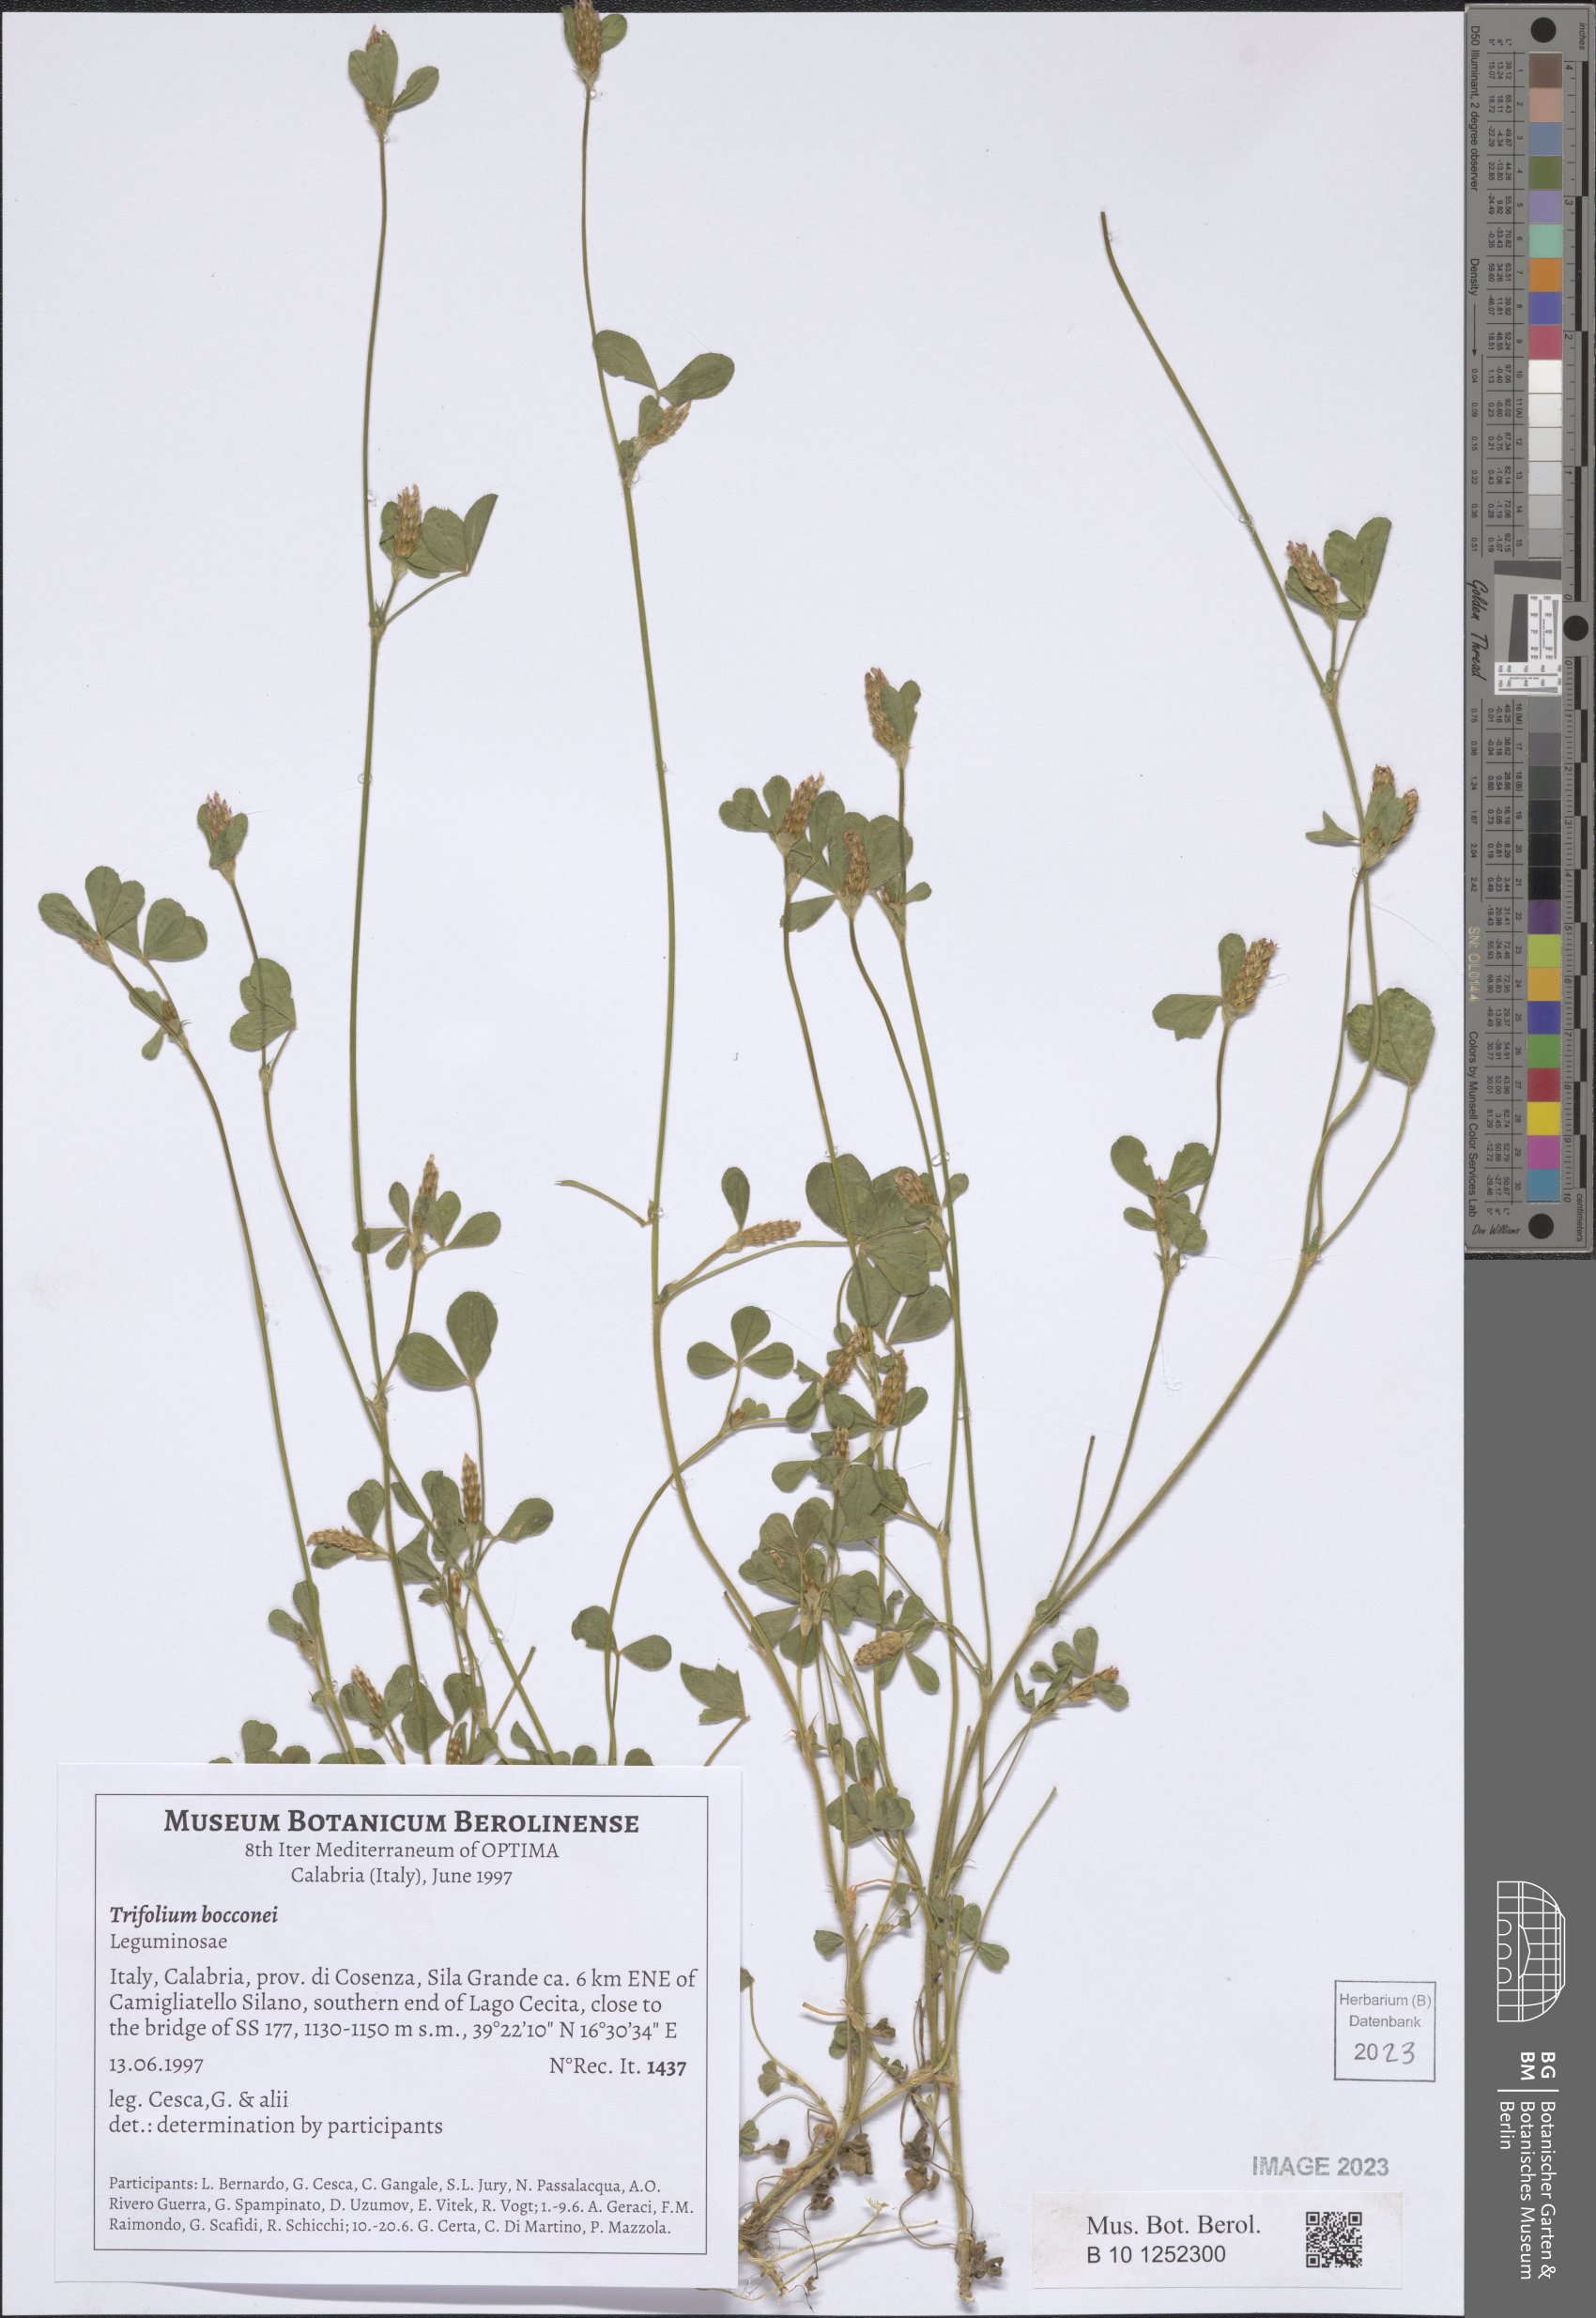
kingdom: Plantae
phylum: Tracheophyta
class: Magnoliopsida
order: Fabales
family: Fabaceae
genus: Trifolium
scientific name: Trifolium bocconei
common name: Twin-headed clover
